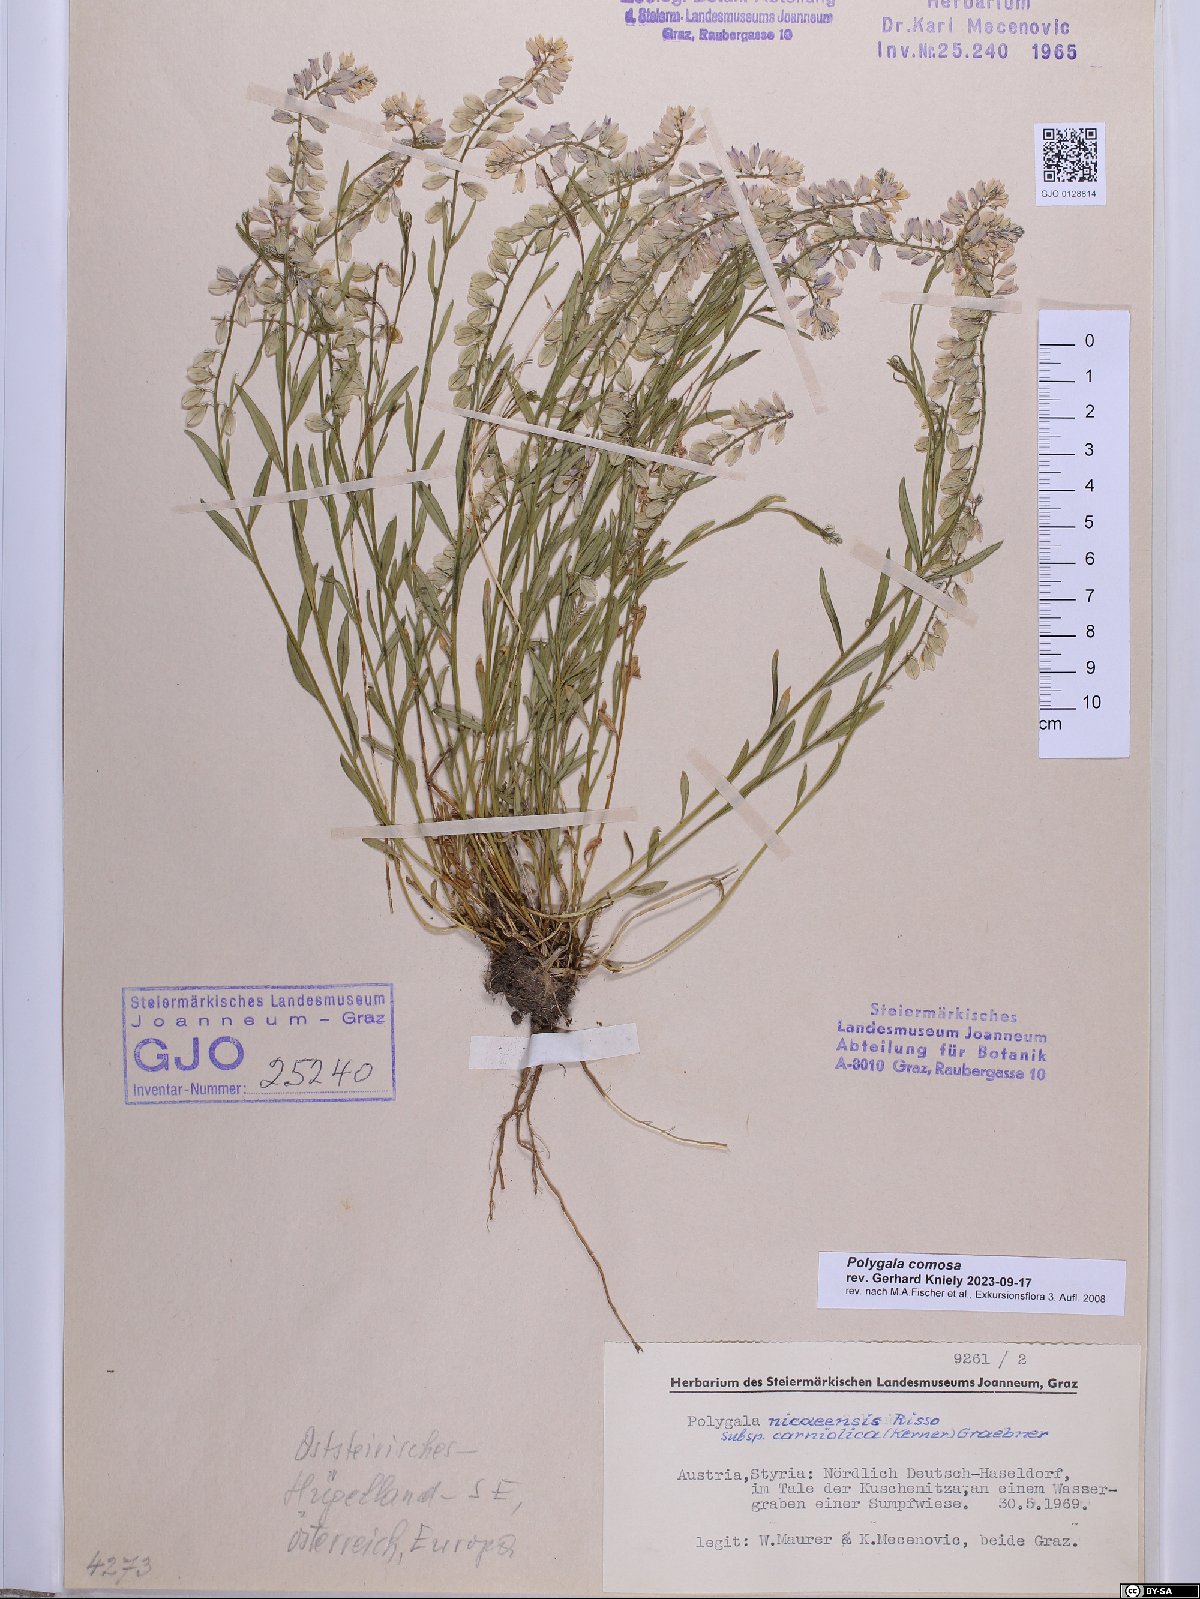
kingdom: Plantae
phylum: Tracheophyta
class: Magnoliopsida
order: Fabales
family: Polygalaceae
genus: Polygala
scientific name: Polygala comosa
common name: Tufted milkwort
